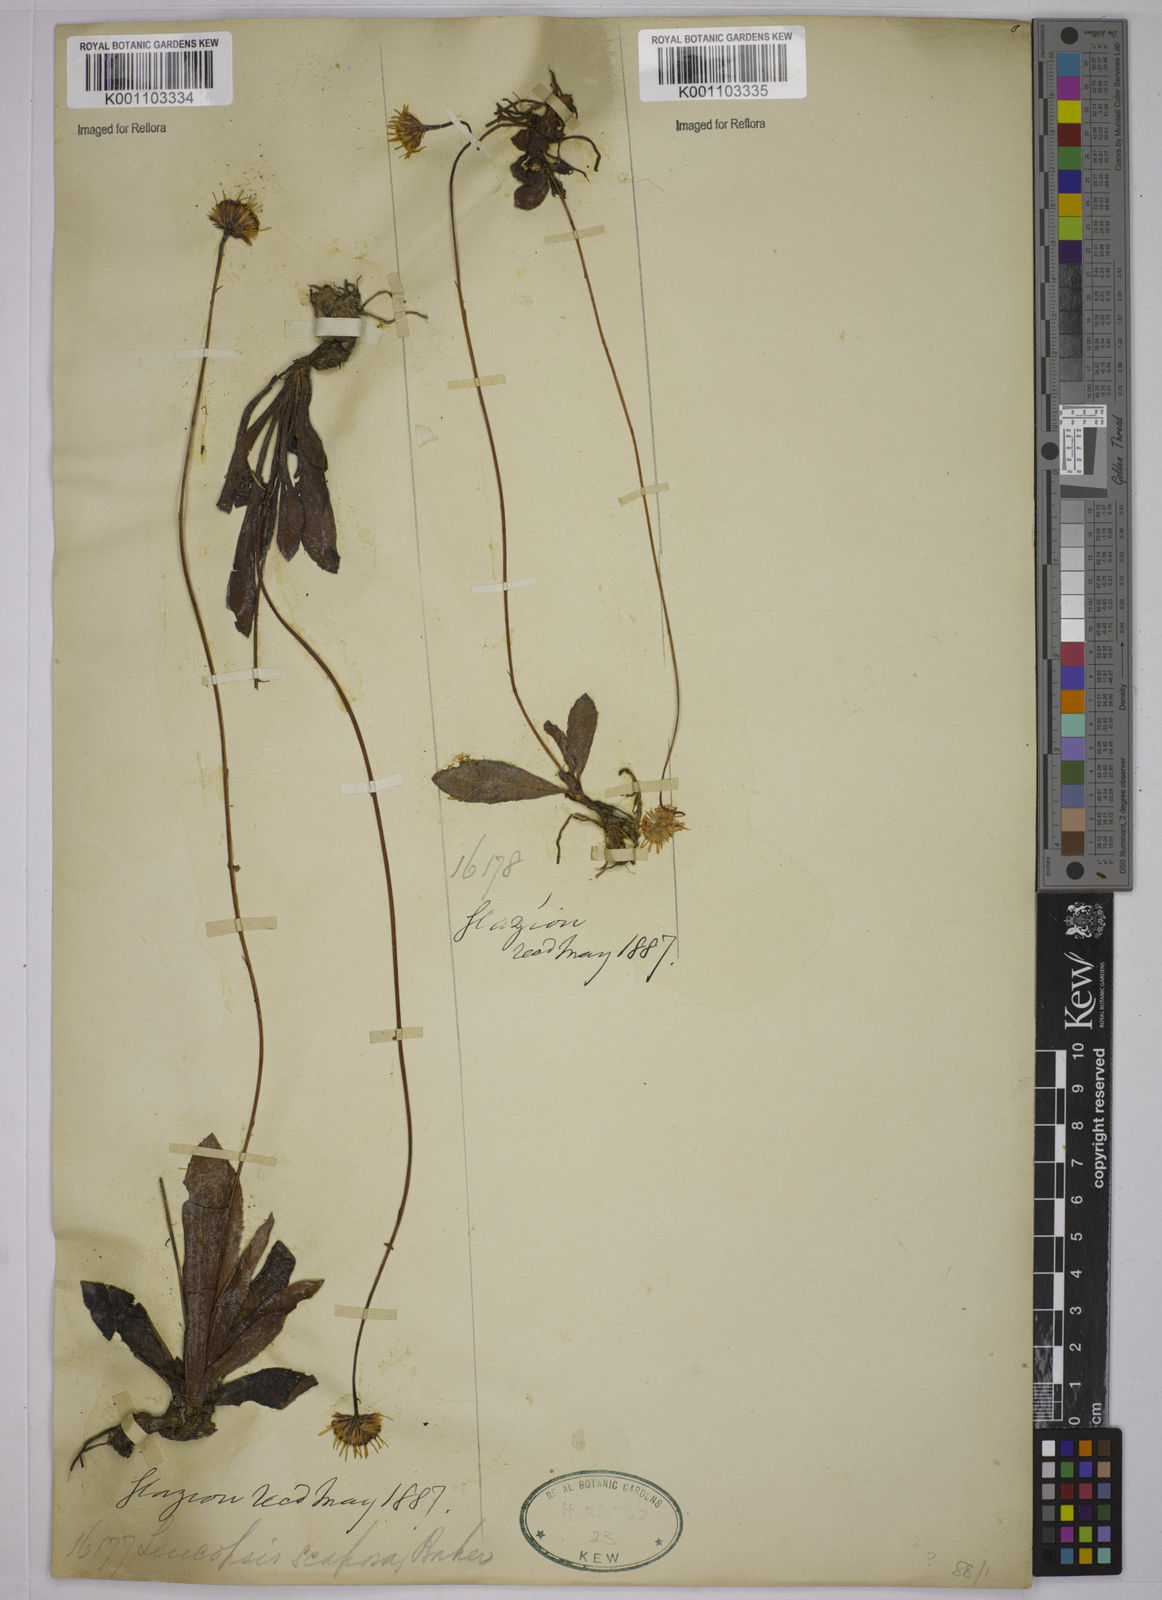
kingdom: Plantae
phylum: Tracheophyta
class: Magnoliopsida
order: Asterales
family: Asteraceae
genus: Inulopsis
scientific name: Inulopsis scaposa
